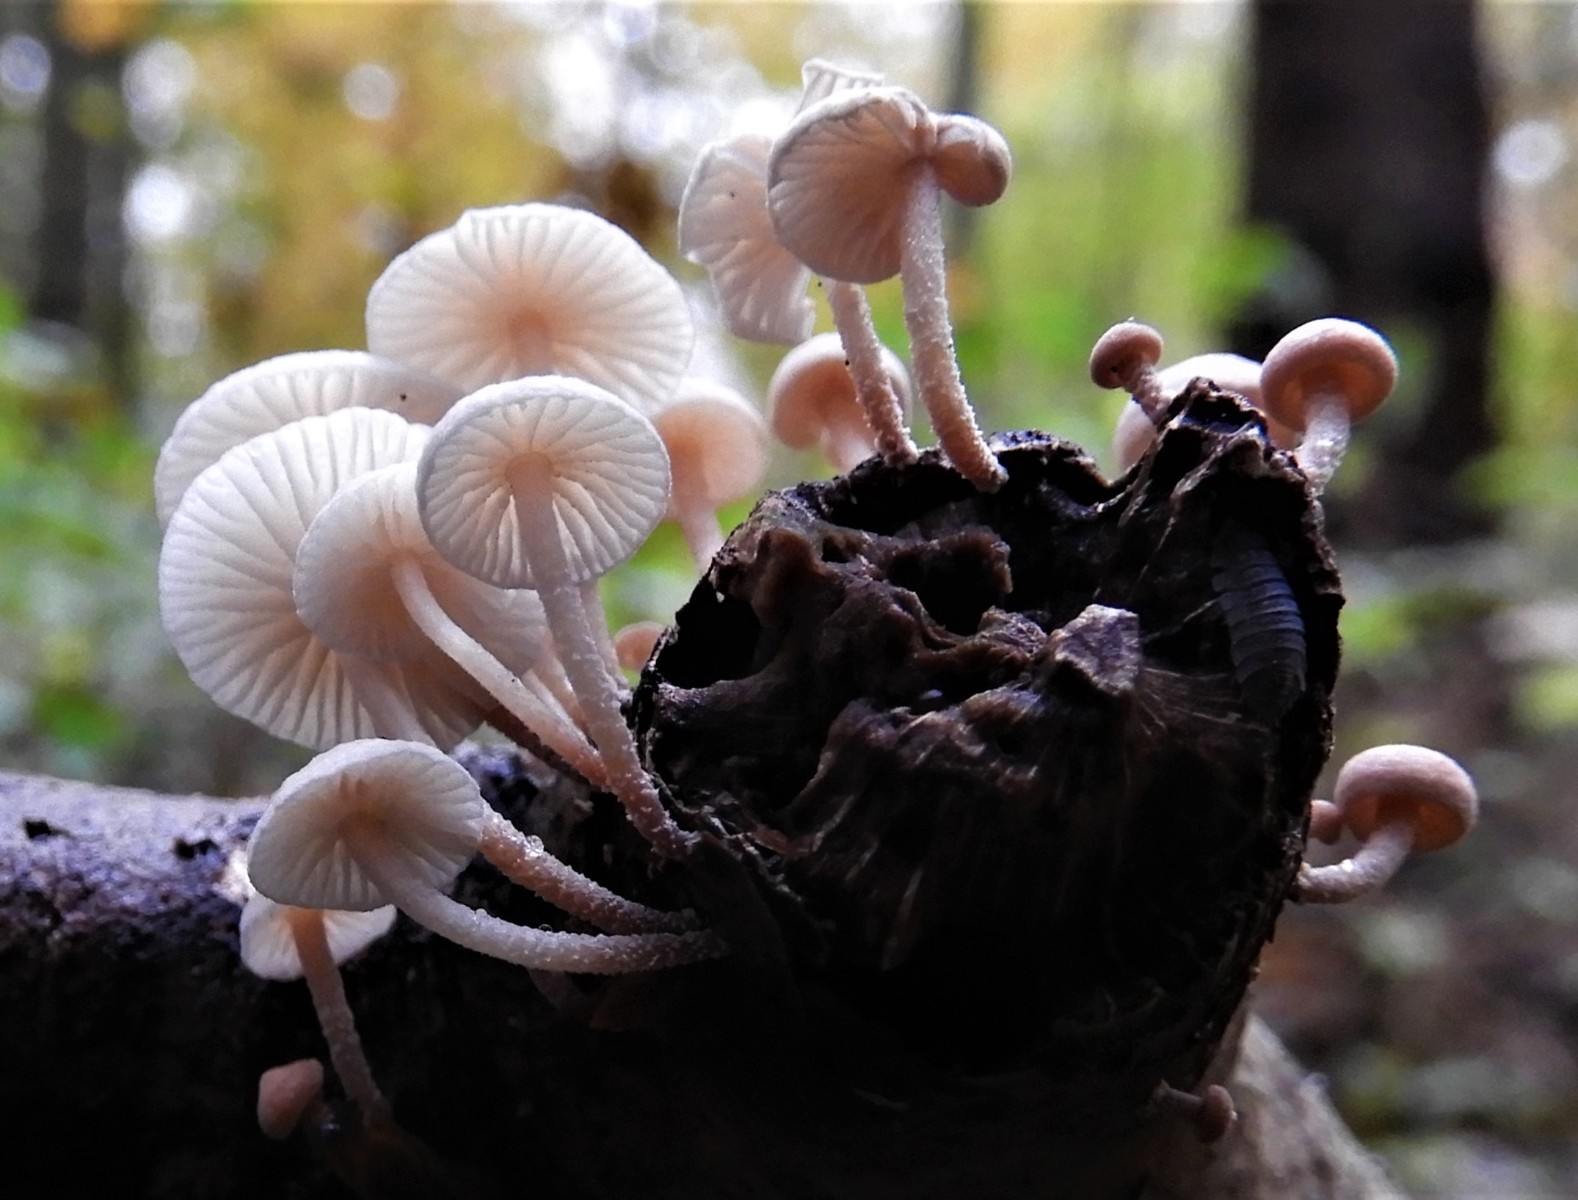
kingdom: Fungi
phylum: Basidiomycota
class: Agaricomycetes
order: Agaricales
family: Omphalotaceae
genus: Collybiopsis
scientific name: Collybiopsis ramealis
